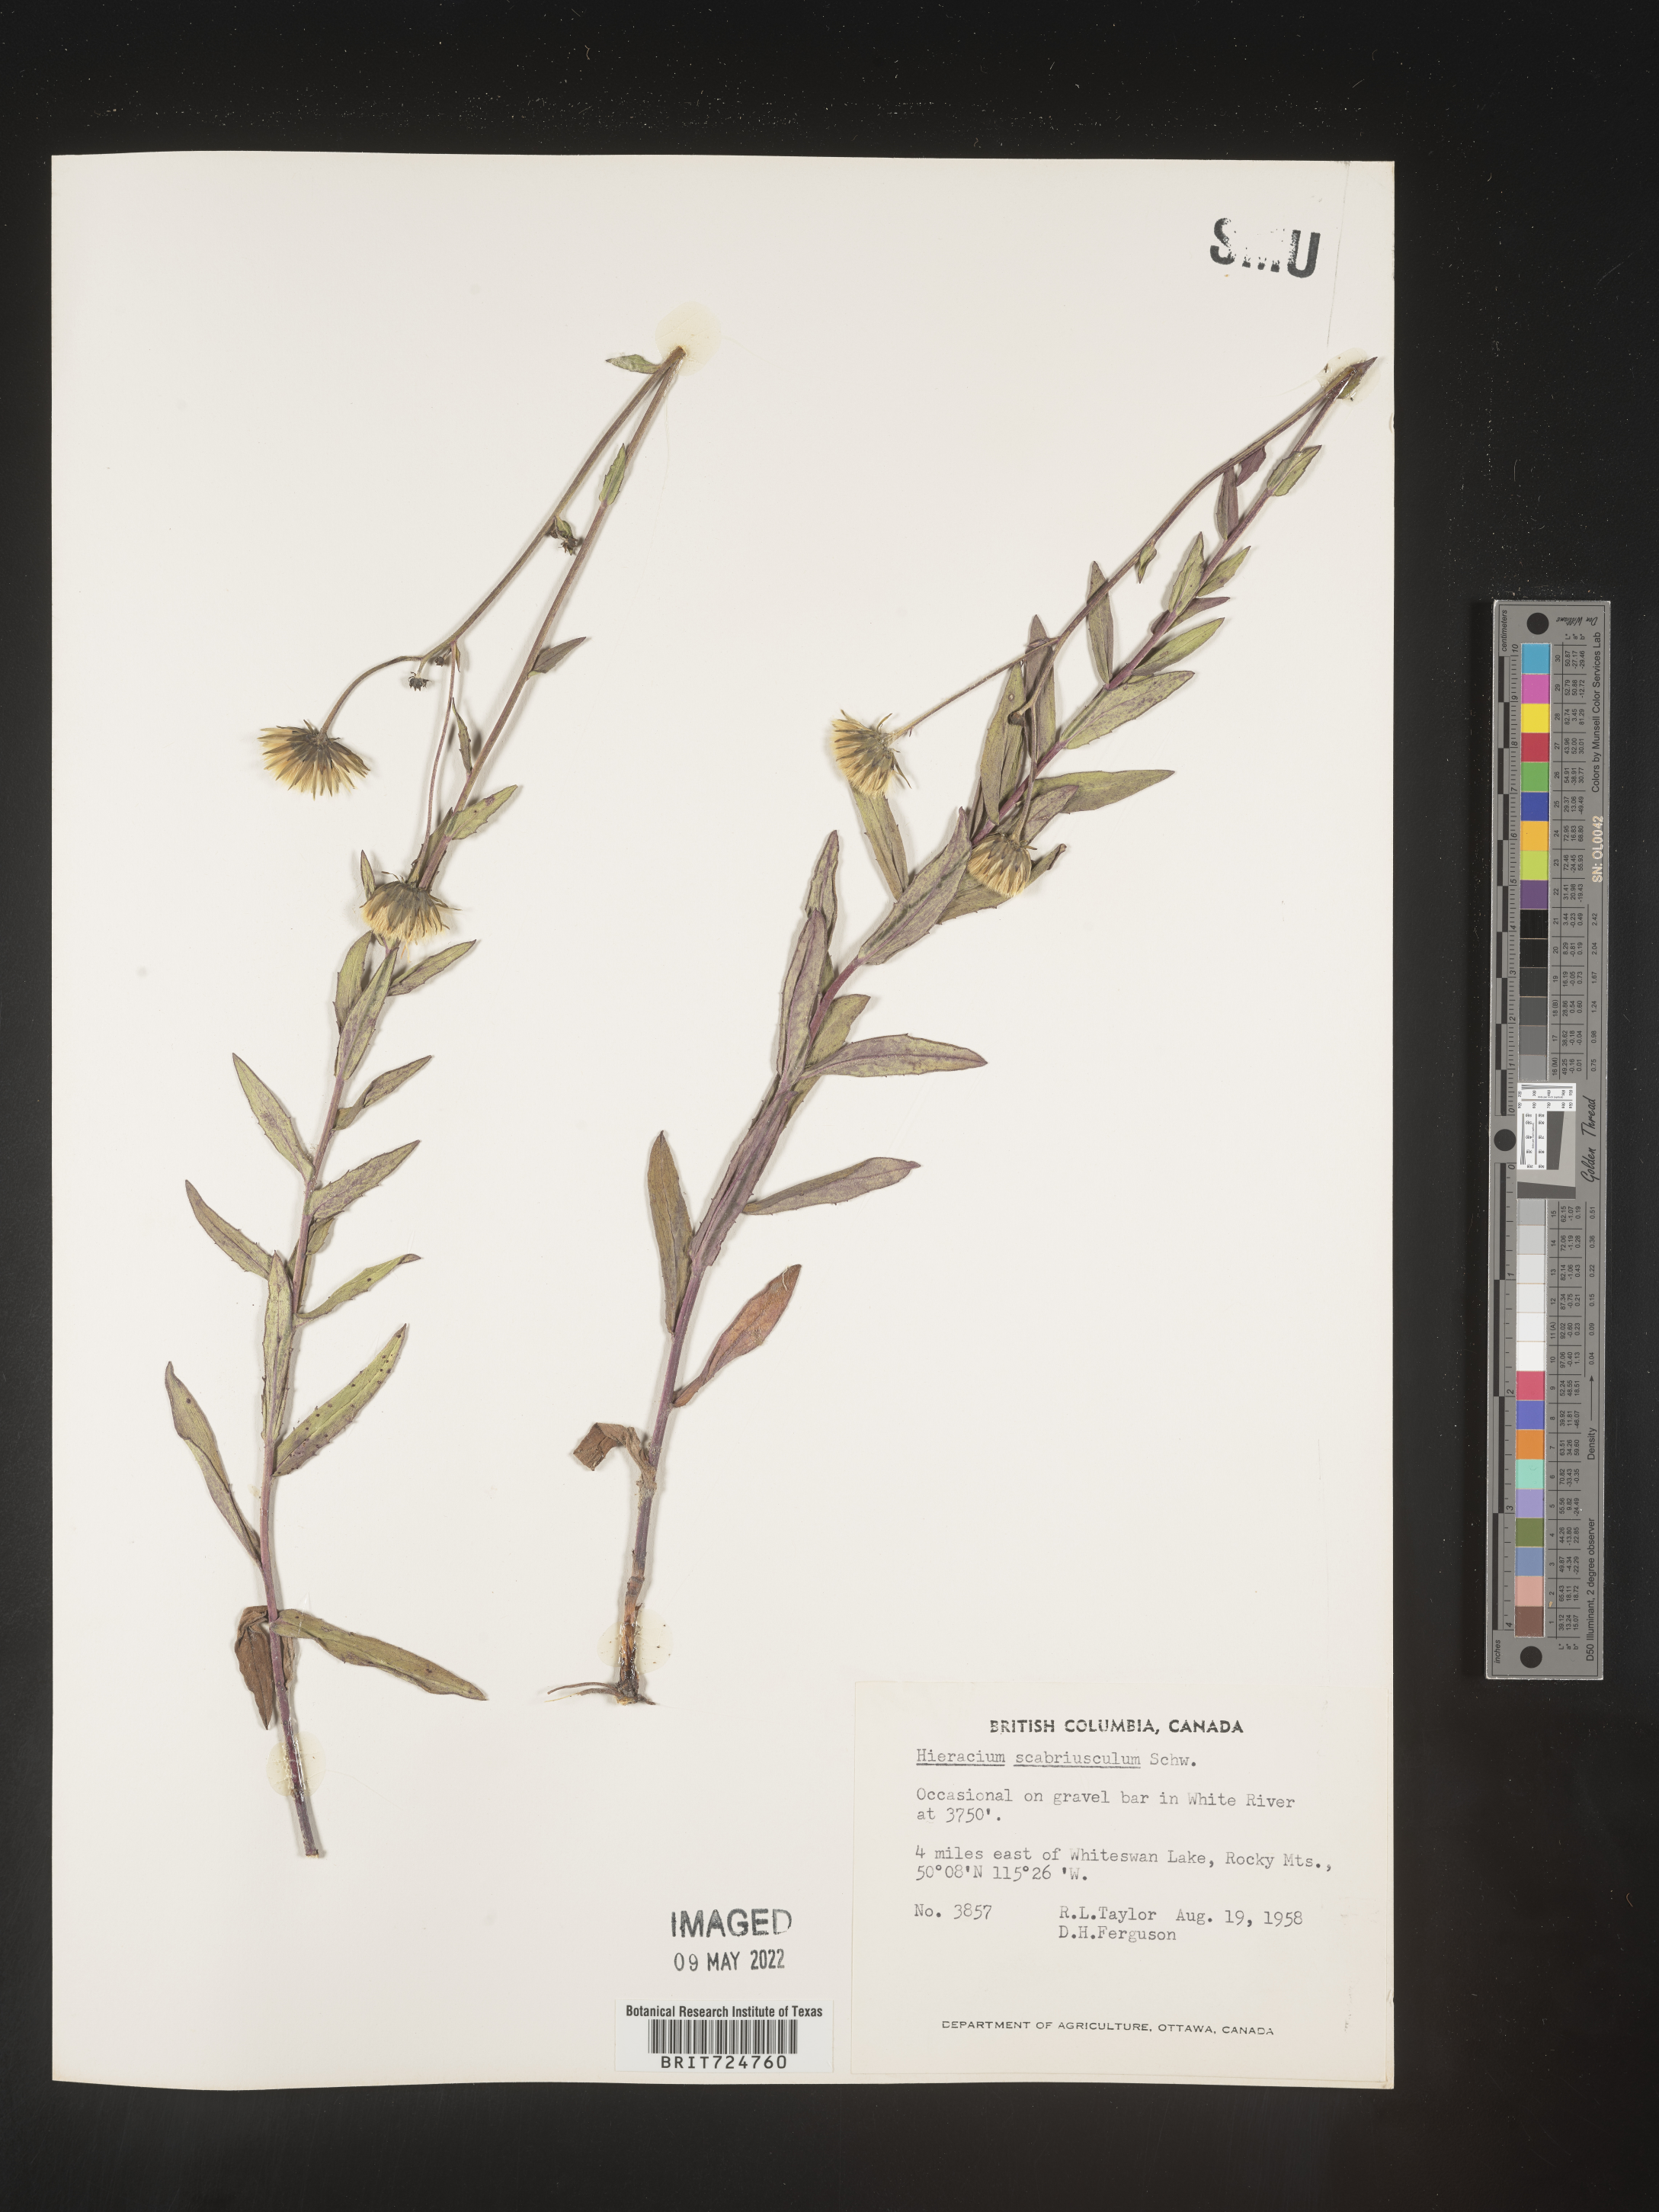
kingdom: Plantae
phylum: Tracheophyta
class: Magnoliopsida
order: Asterales
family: Asteraceae
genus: Hieracium
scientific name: Hieracium
